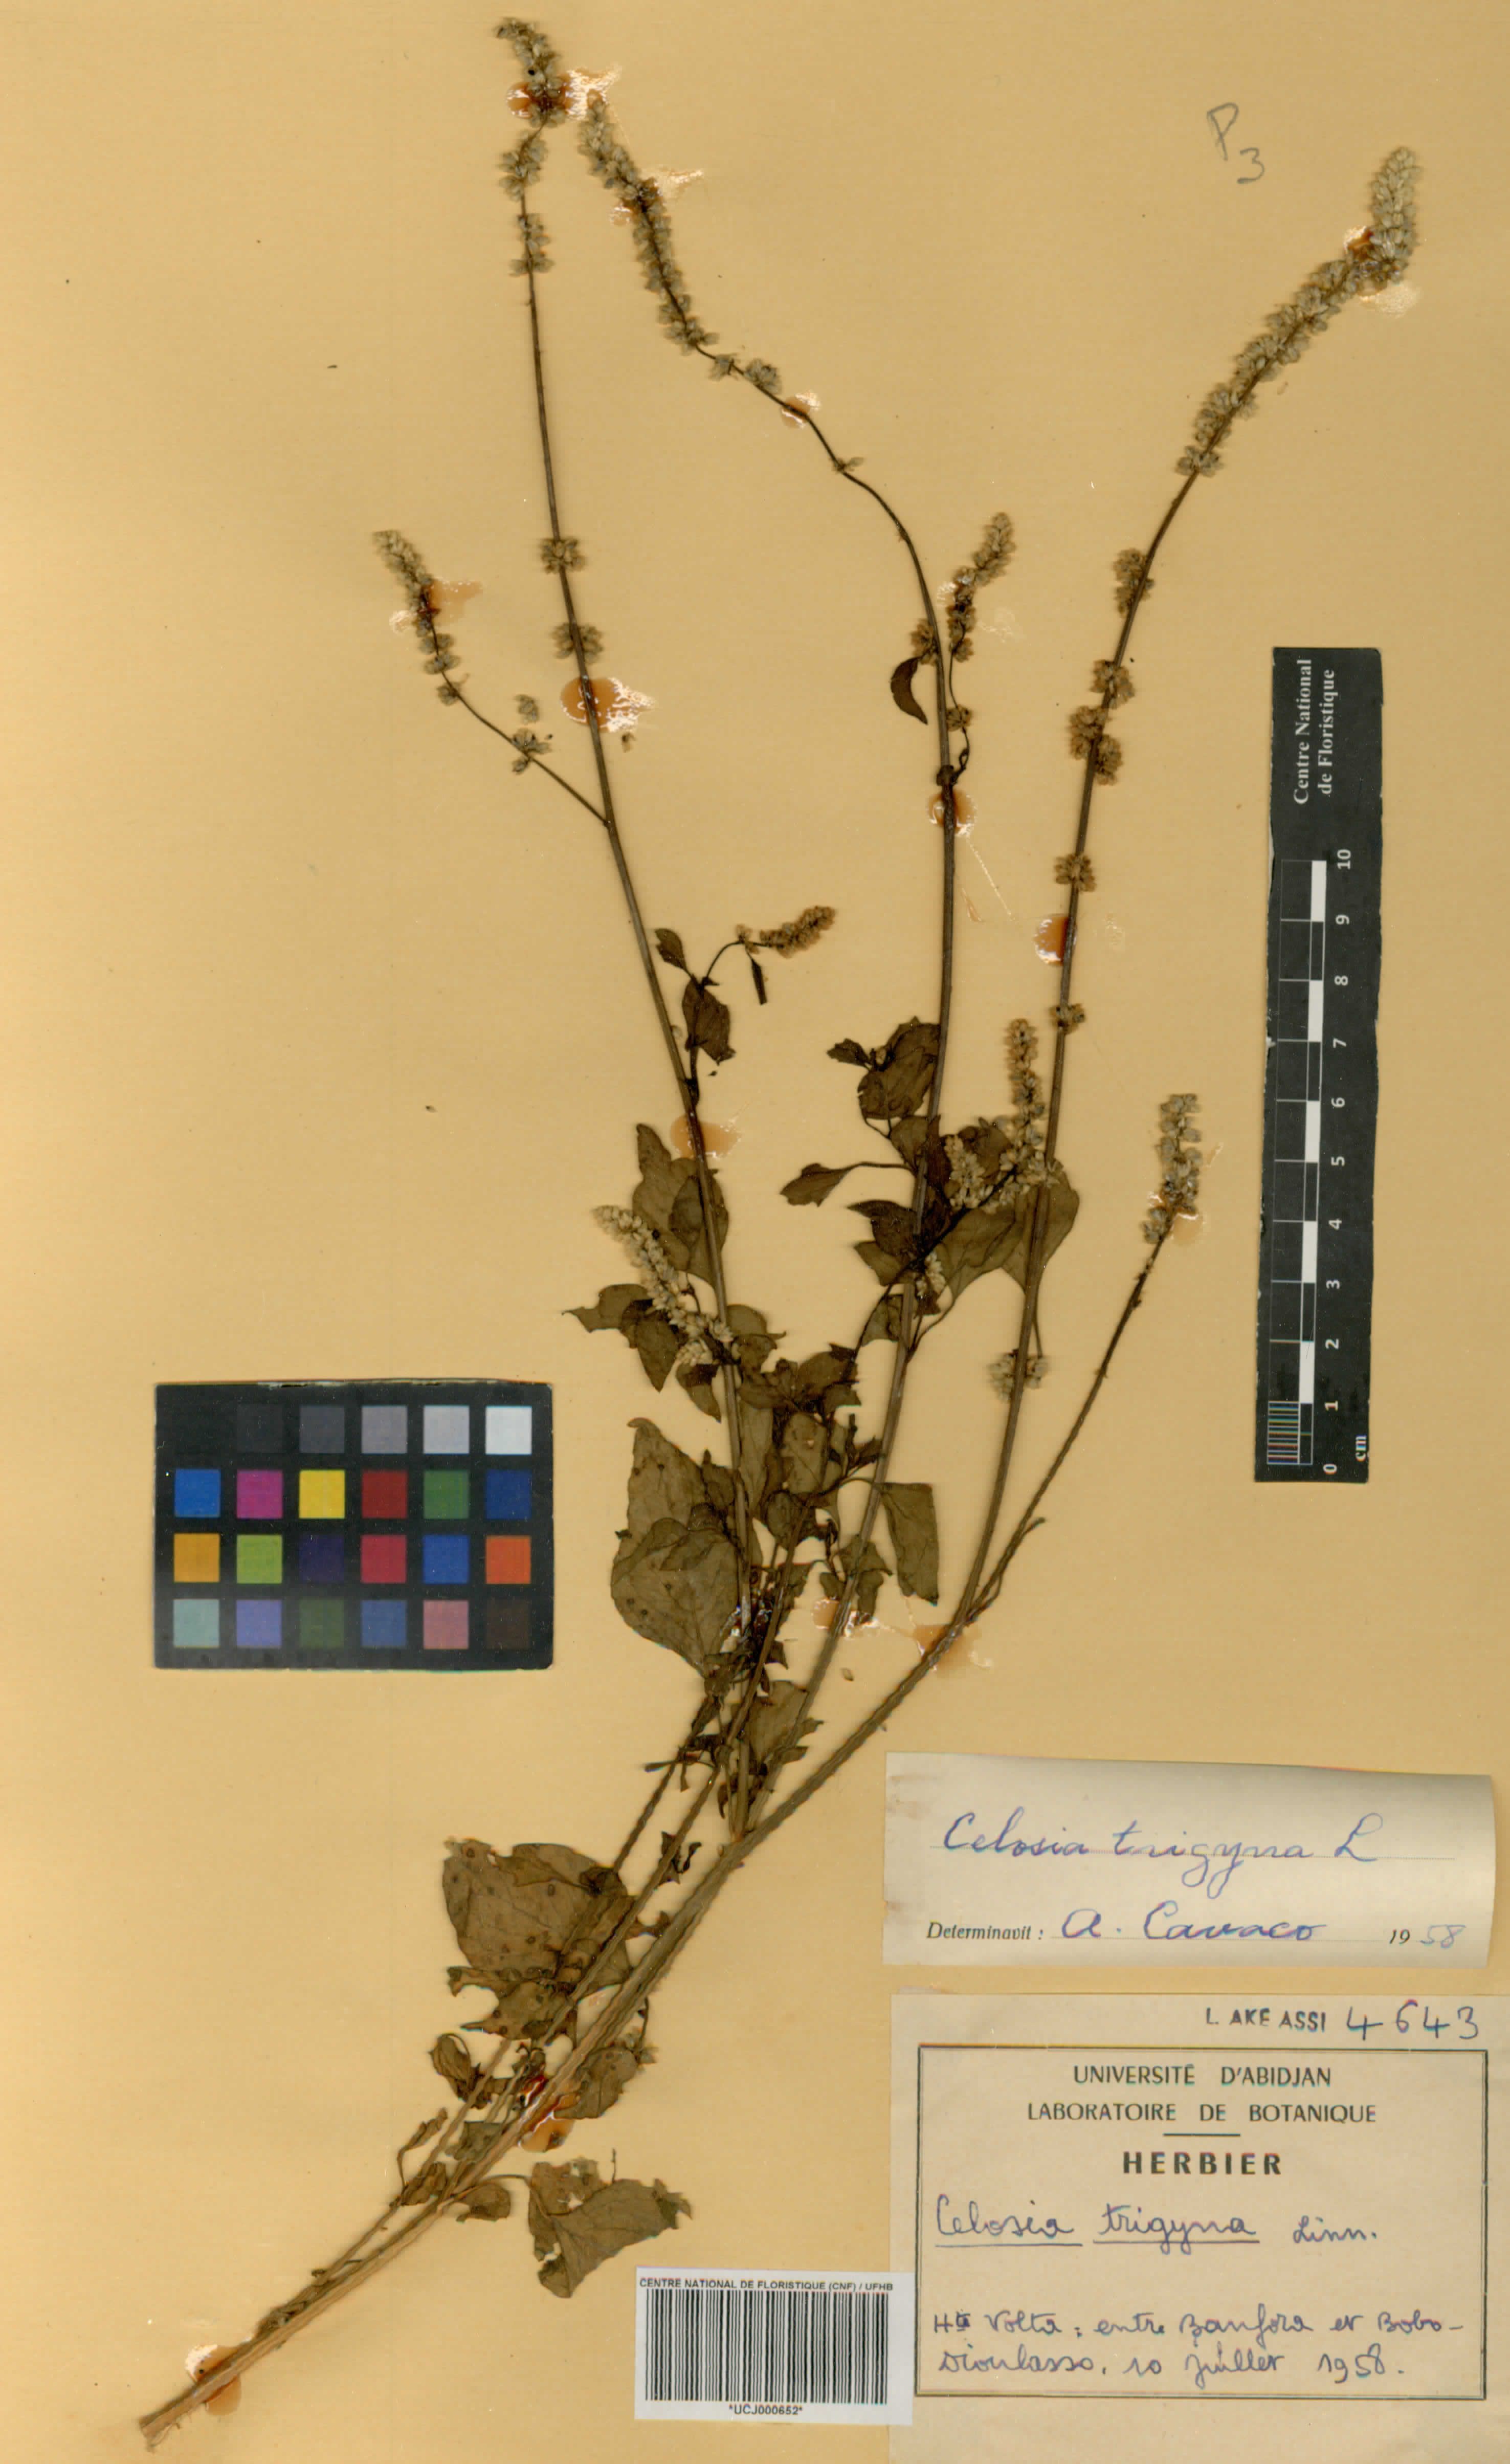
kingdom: Plantae
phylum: Tracheophyta
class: Magnoliopsida
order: Caryophyllales
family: Amaranthaceae
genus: Celosia
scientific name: Celosia trigyna
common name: Woolflower
